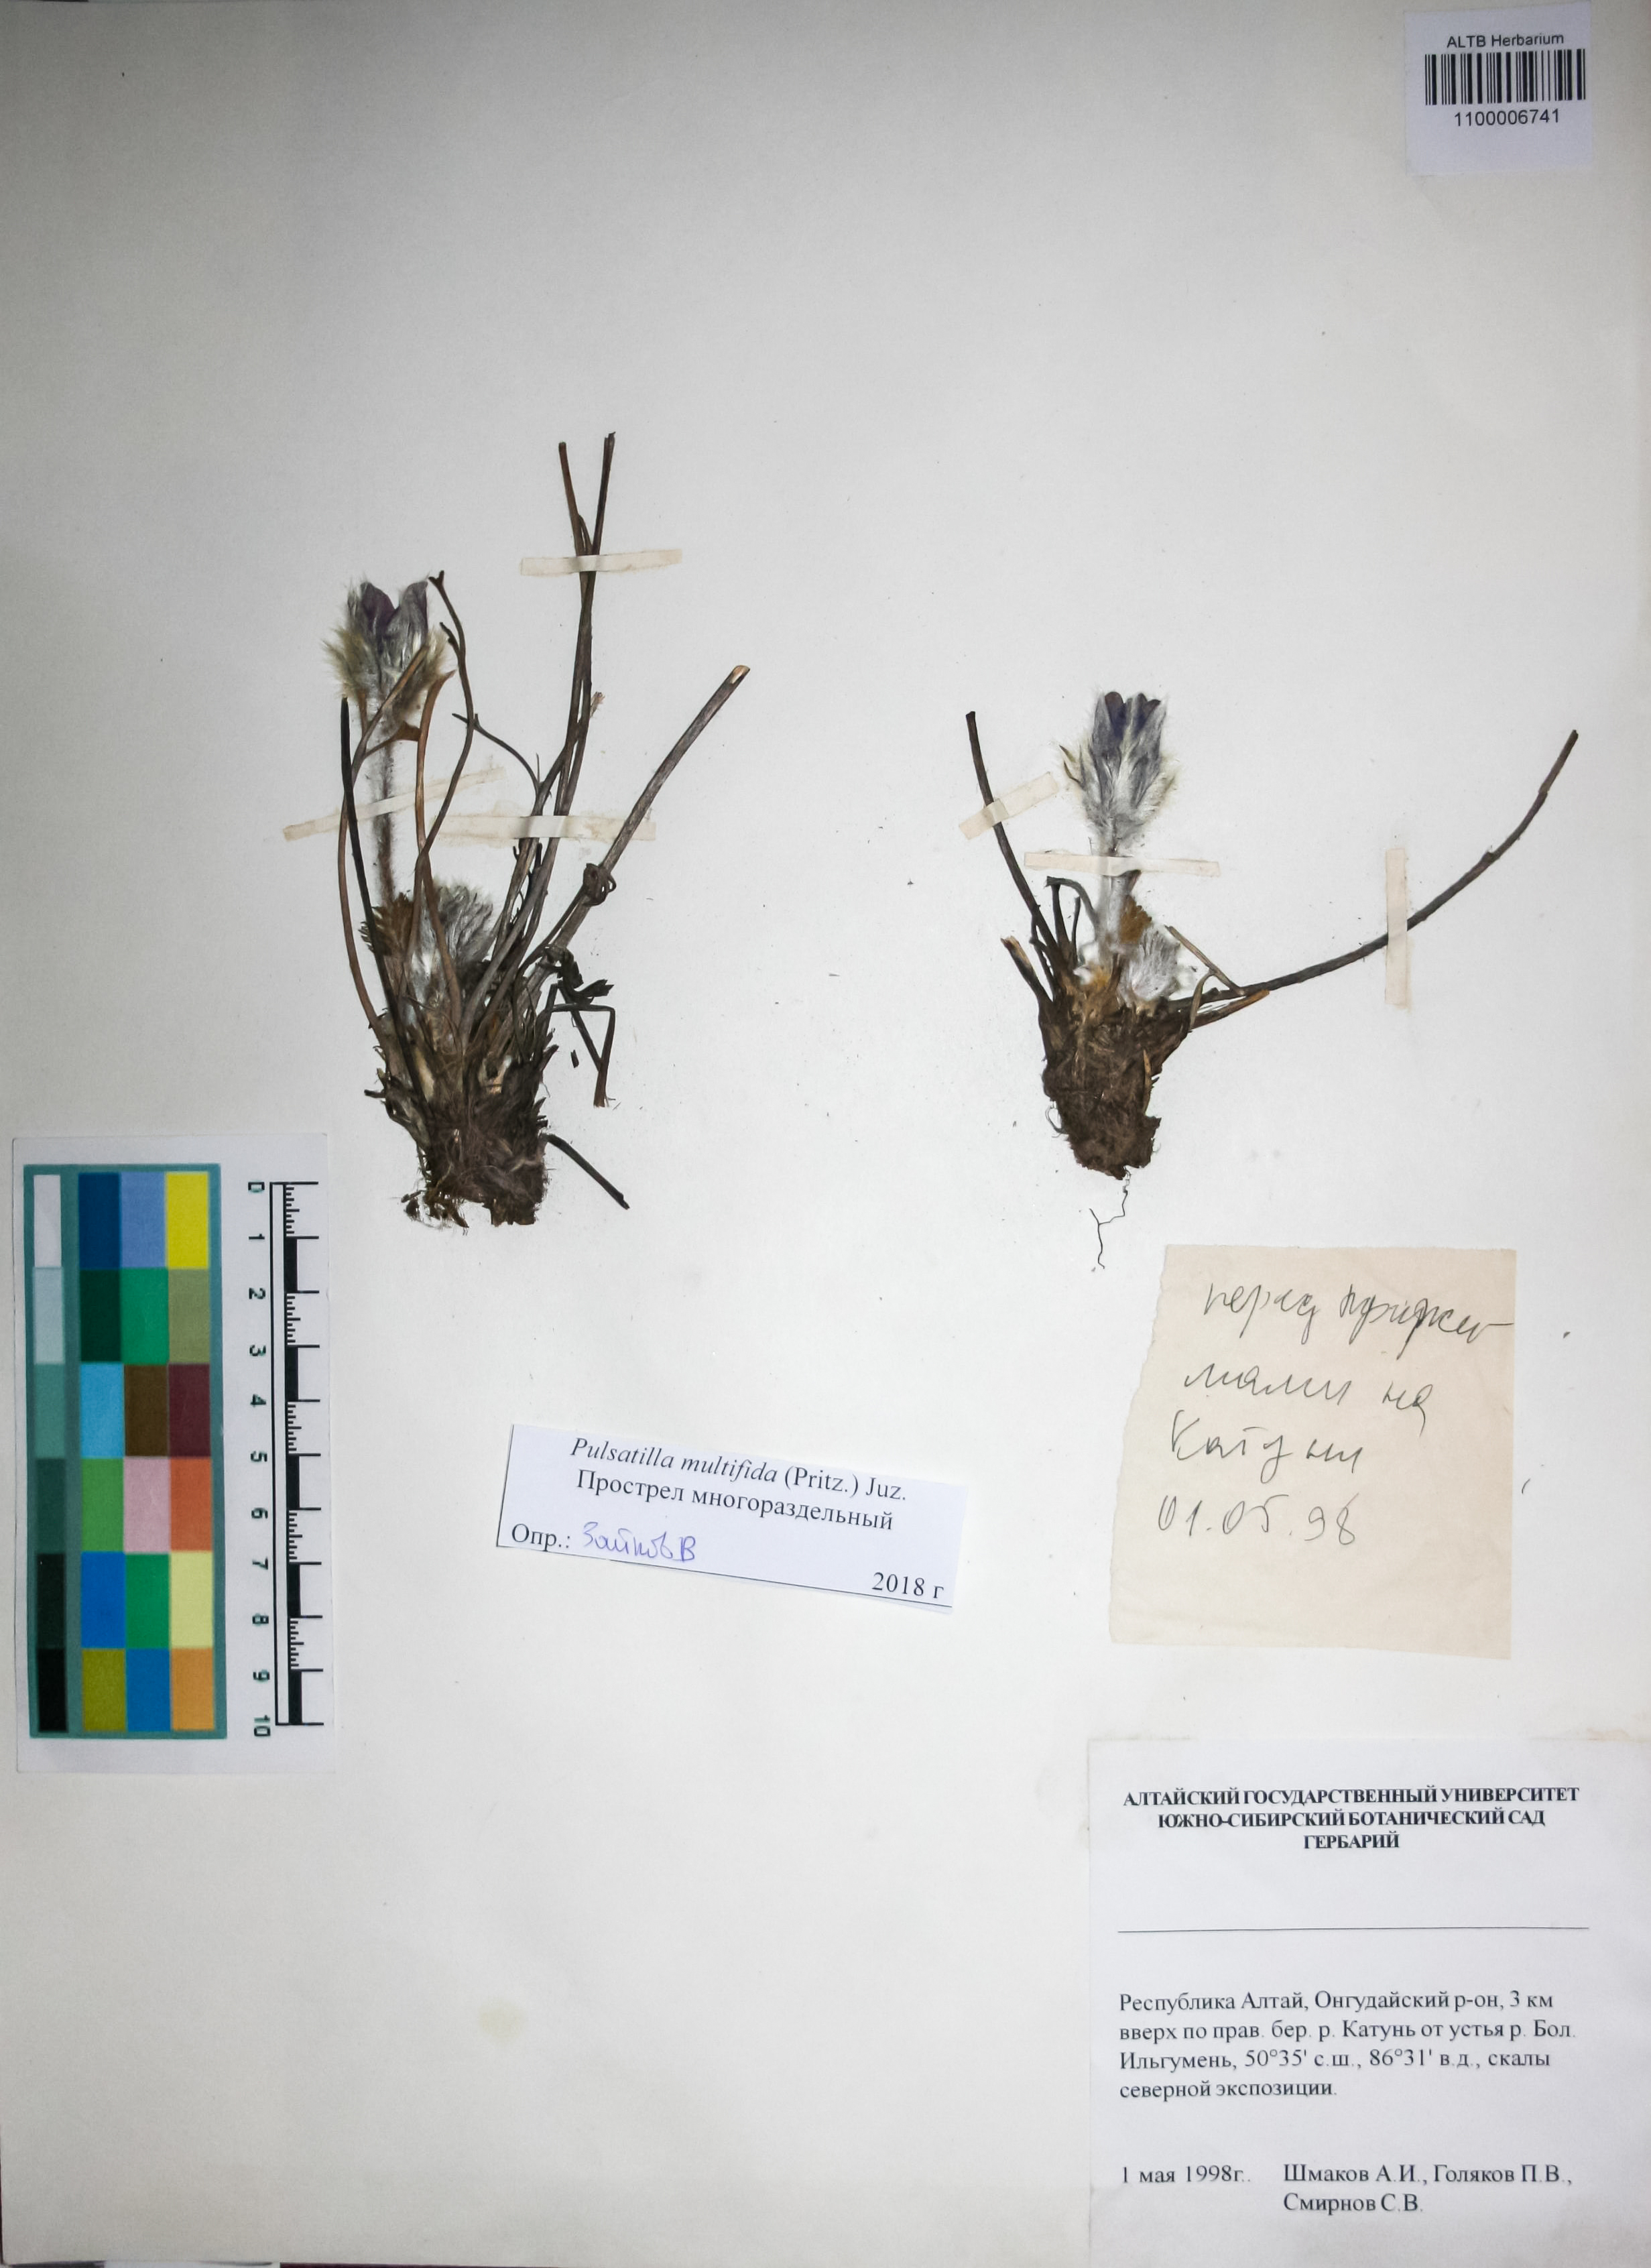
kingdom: Plantae
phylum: Tracheophyta
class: Magnoliopsida
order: Ranunculales
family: Ranunculaceae
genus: Pulsatilla
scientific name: Pulsatilla patens
